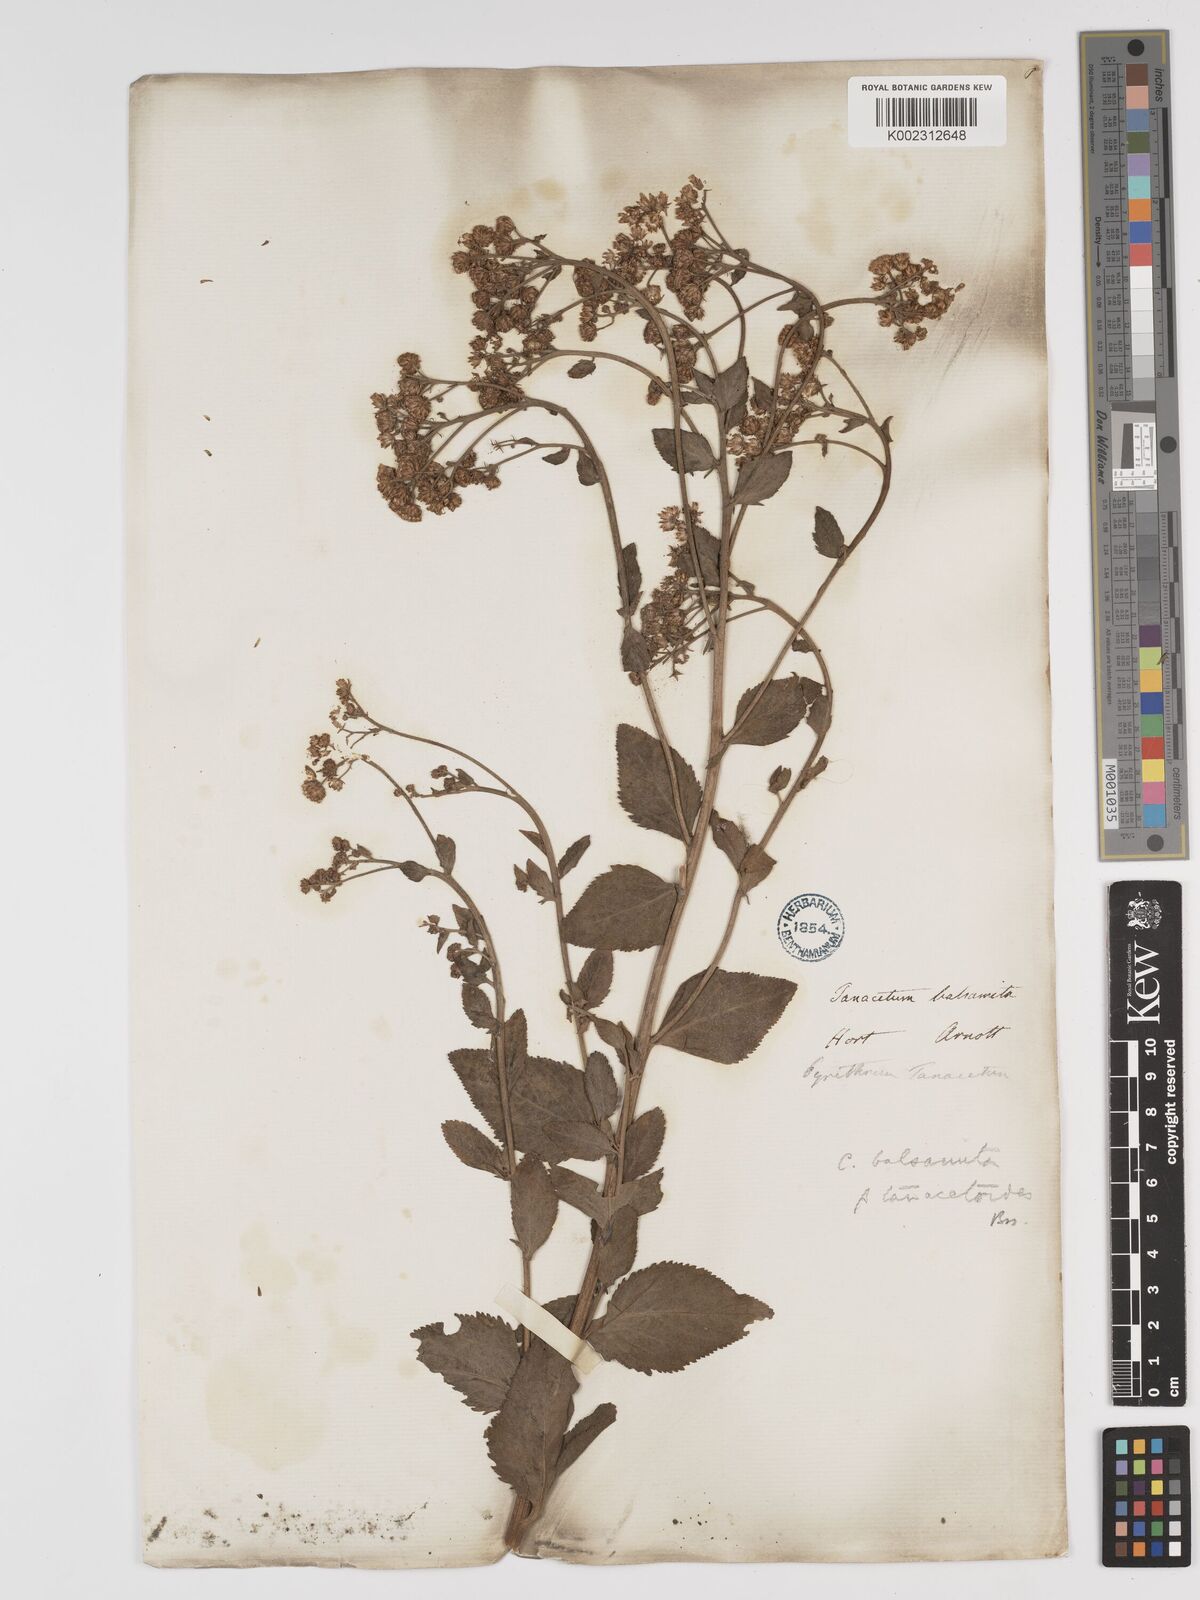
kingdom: Plantae
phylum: Tracheophyta
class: Magnoliopsida
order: Asterales
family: Asteraceae
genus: Tanacetum
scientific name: Tanacetum balsamita
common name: Costmary
